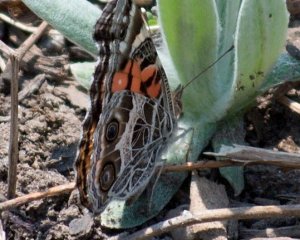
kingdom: Animalia
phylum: Arthropoda
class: Insecta
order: Lepidoptera
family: Nymphalidae
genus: Vanessa
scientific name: Vanessa virginiensis
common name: American Lady
